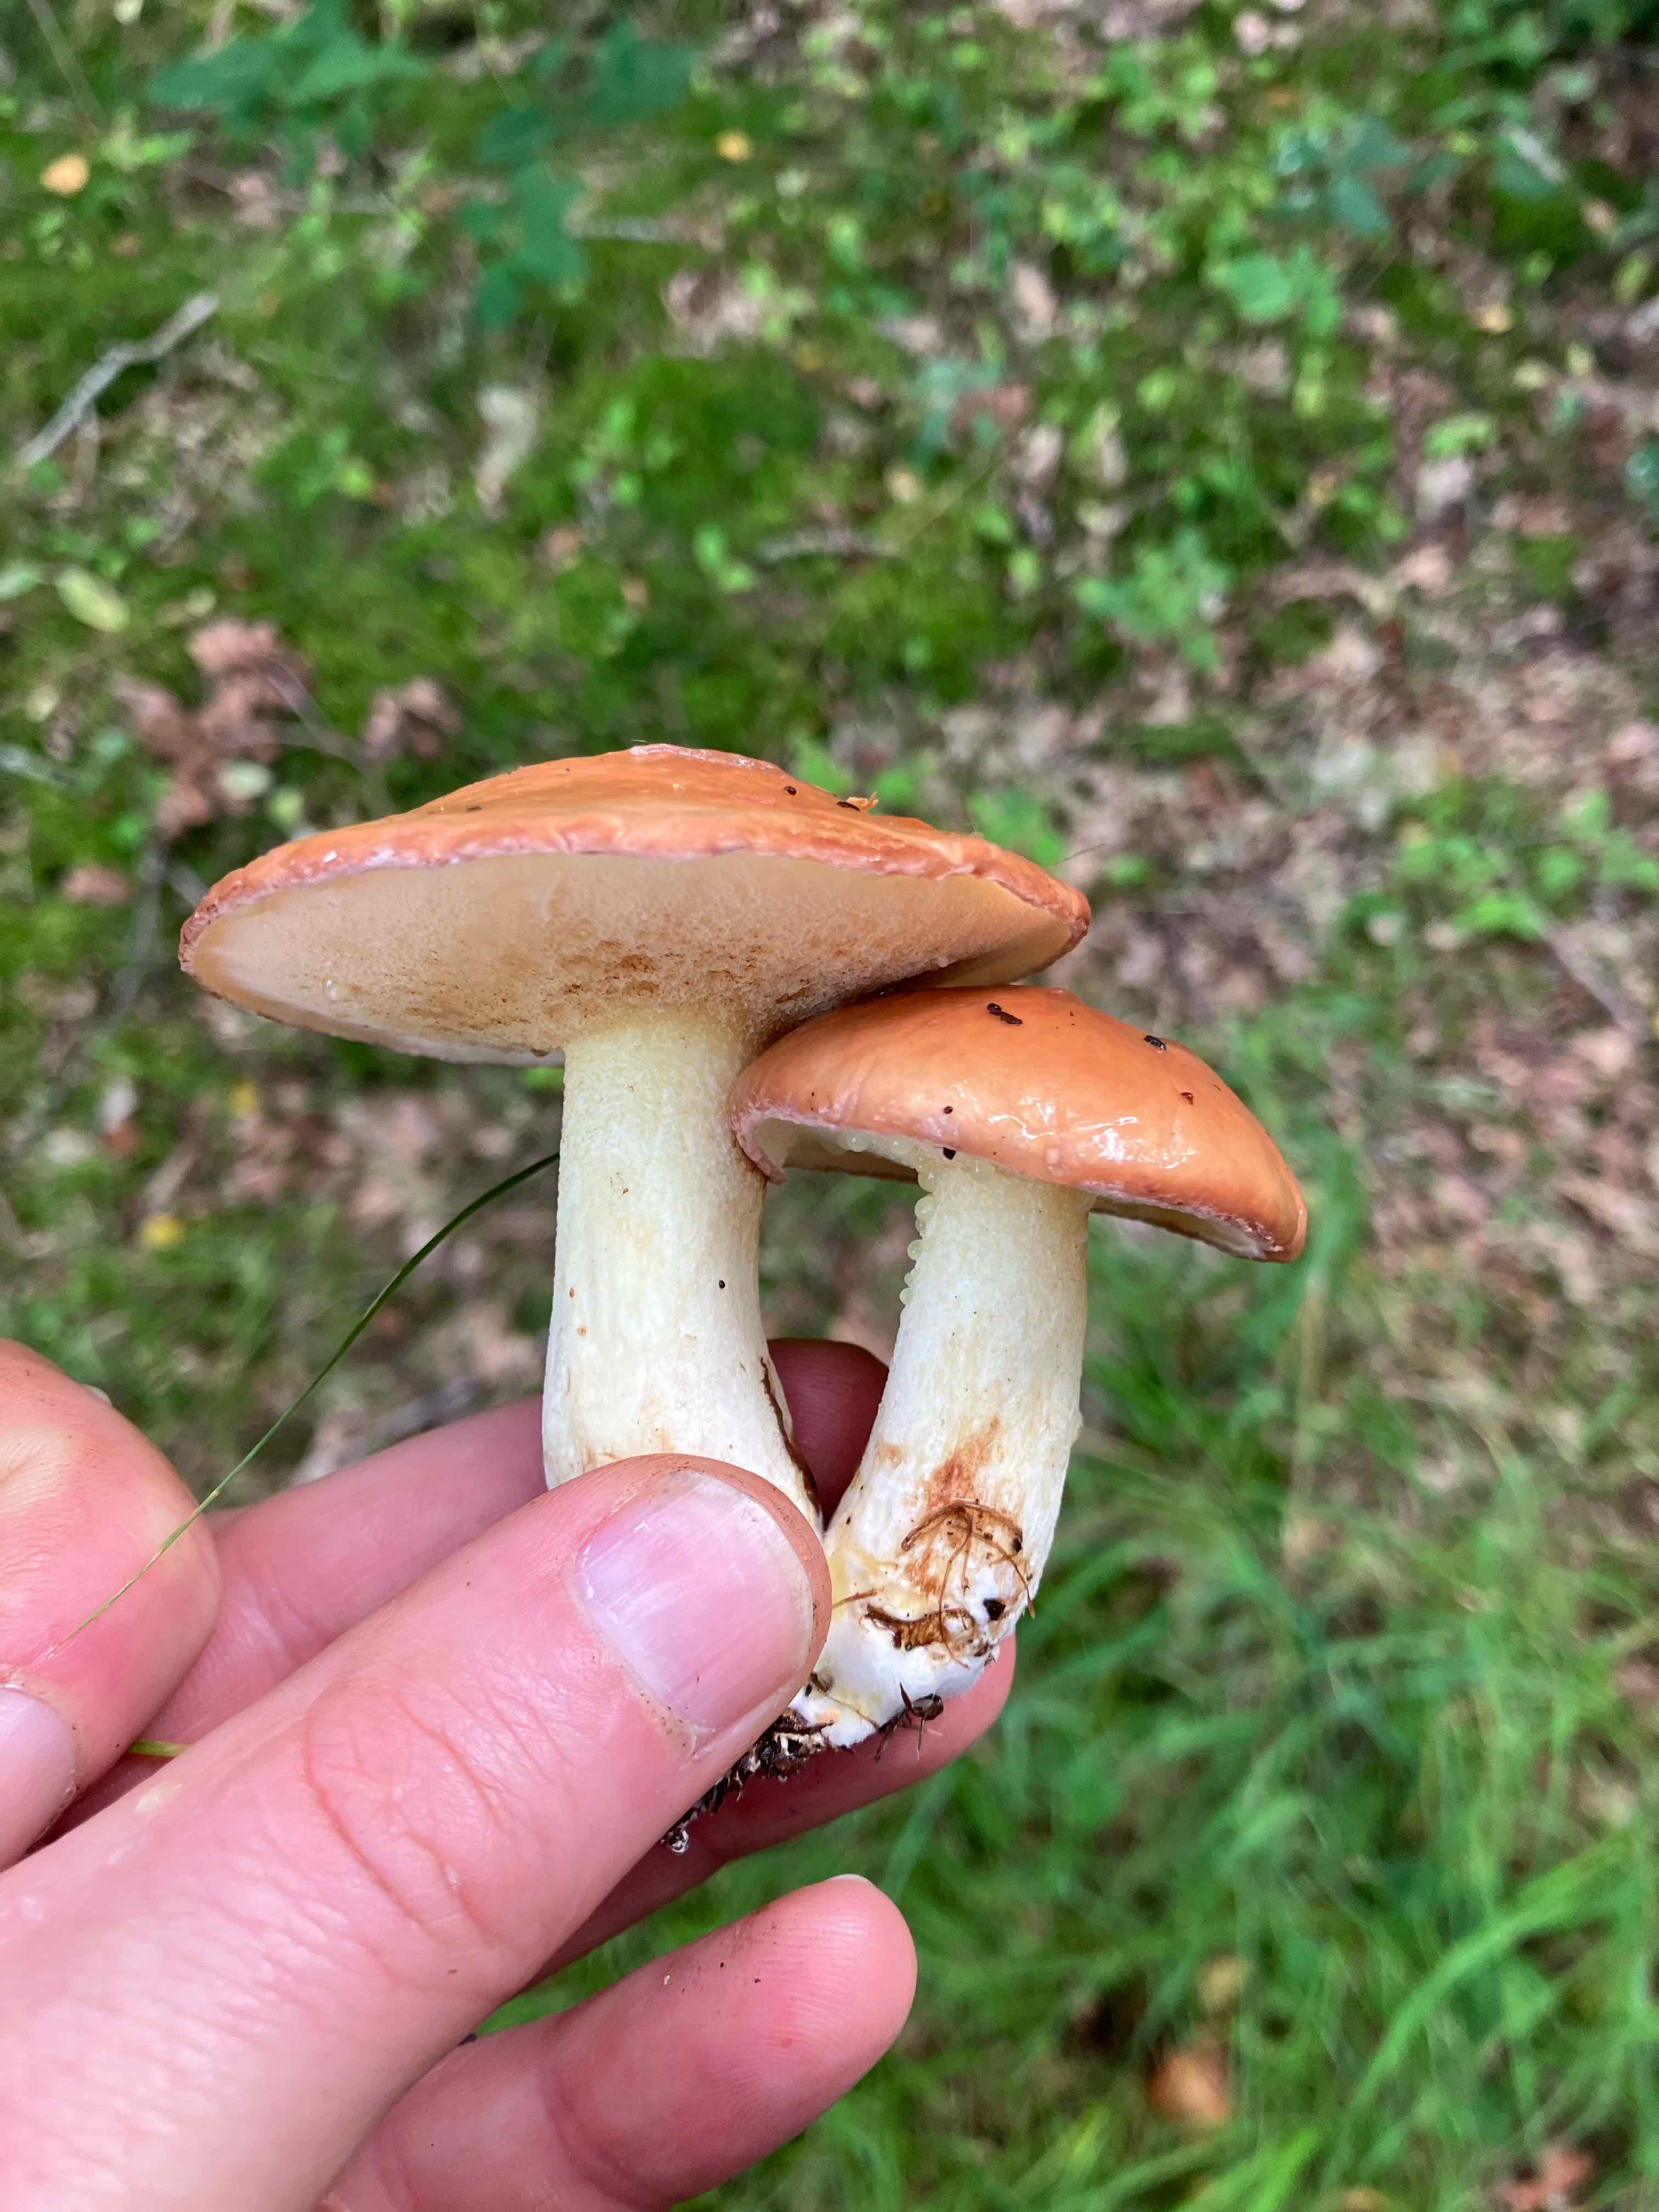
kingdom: Fungi
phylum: Basidiomycota
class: Agaricomycetes
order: Boletales
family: Suillaceae
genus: Suillus
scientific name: Suillus granulatus
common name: kornet slimrørhat
